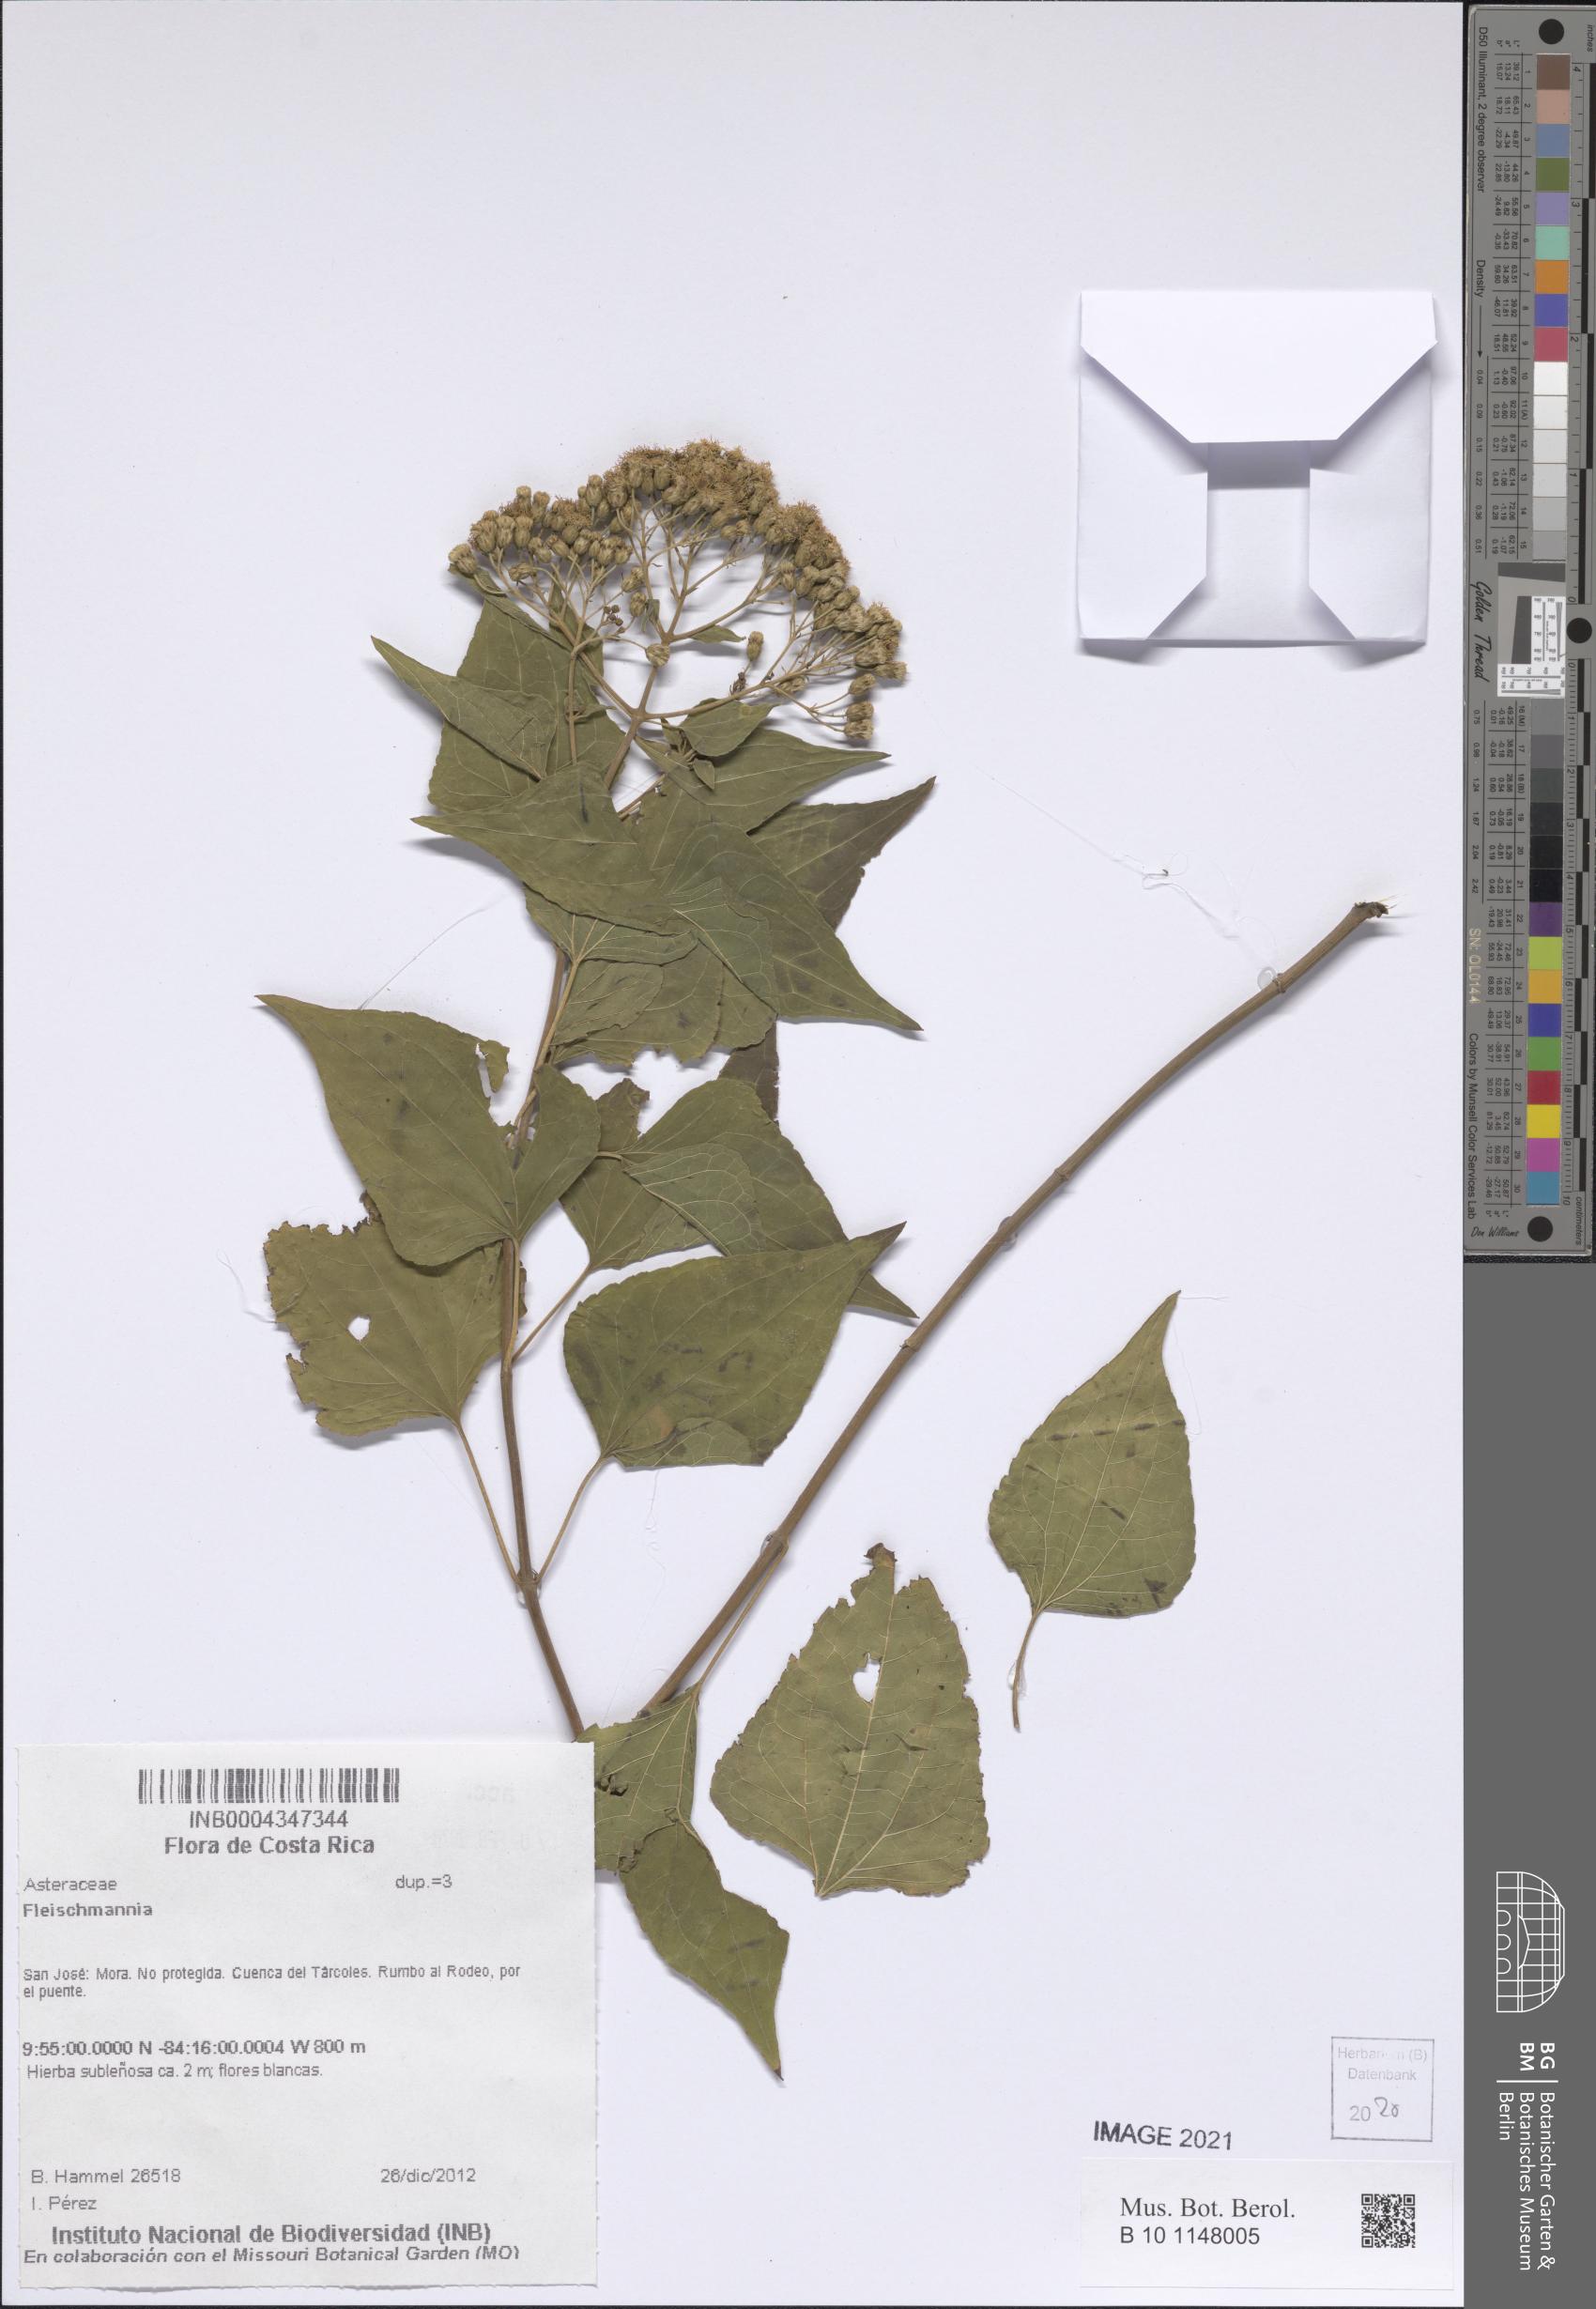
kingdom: Plantae
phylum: Tracheophyta
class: Magnoliopsida
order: Asterales
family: Asteraceae
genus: Fleischmannia
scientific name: Fleischmannia
